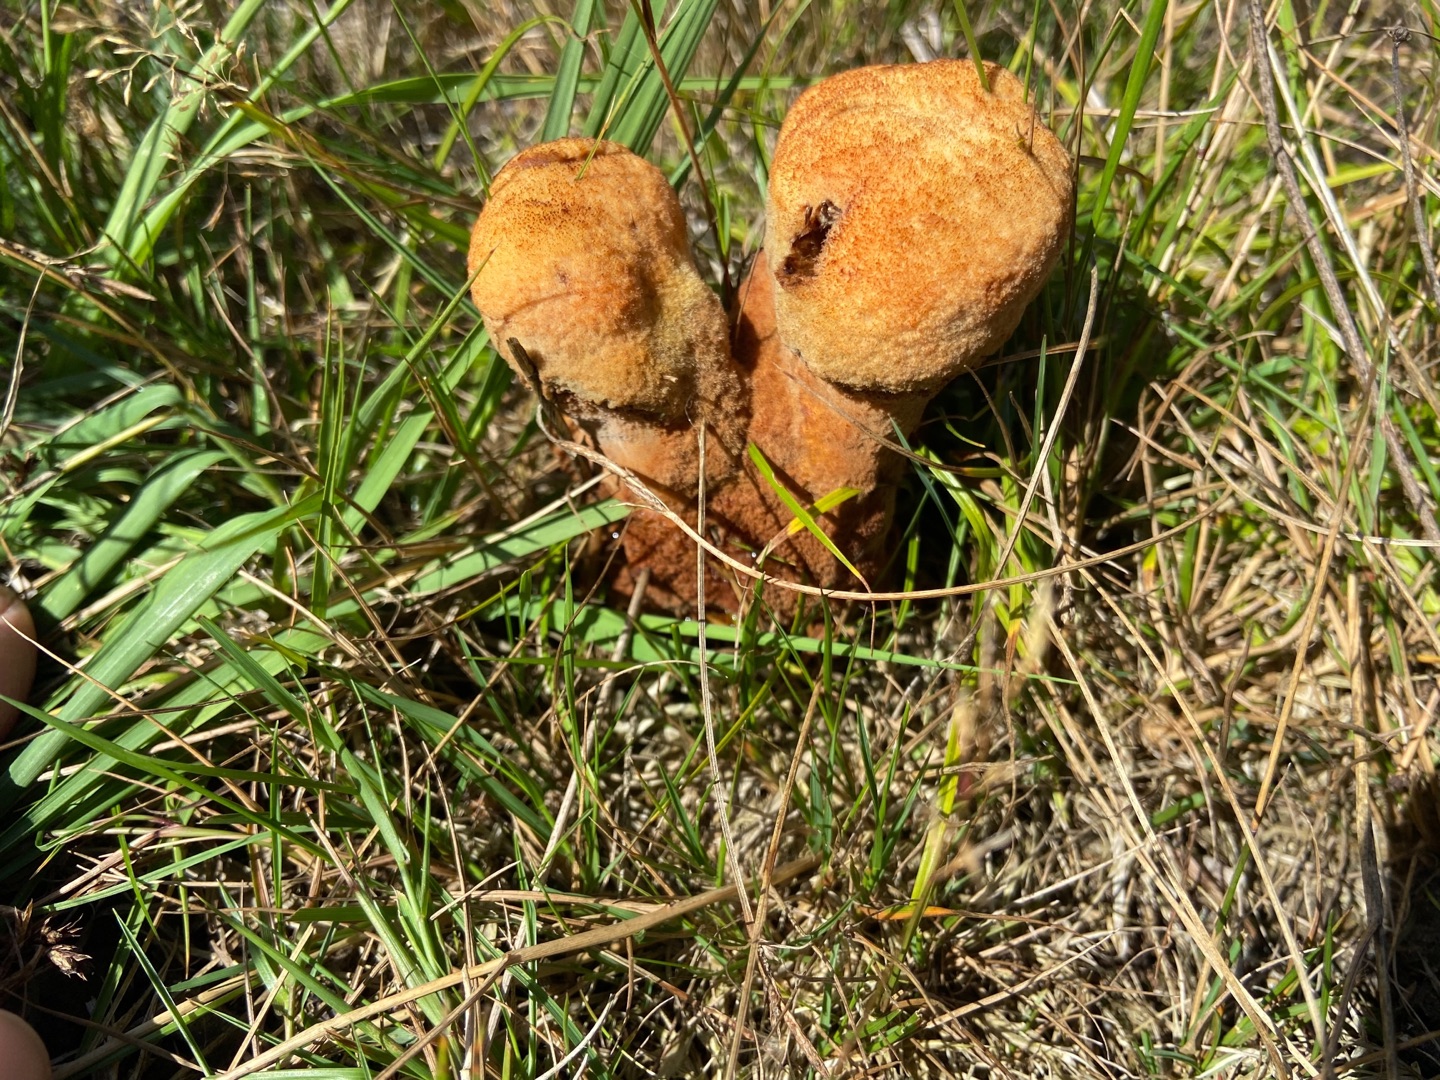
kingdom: Fungi
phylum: Basidiomycota
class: Agaricomycetes
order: Polyporales
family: Laetiporaceae
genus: Phaeolus
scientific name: Phaeolus schweinitzii
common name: Brunporesvamp
